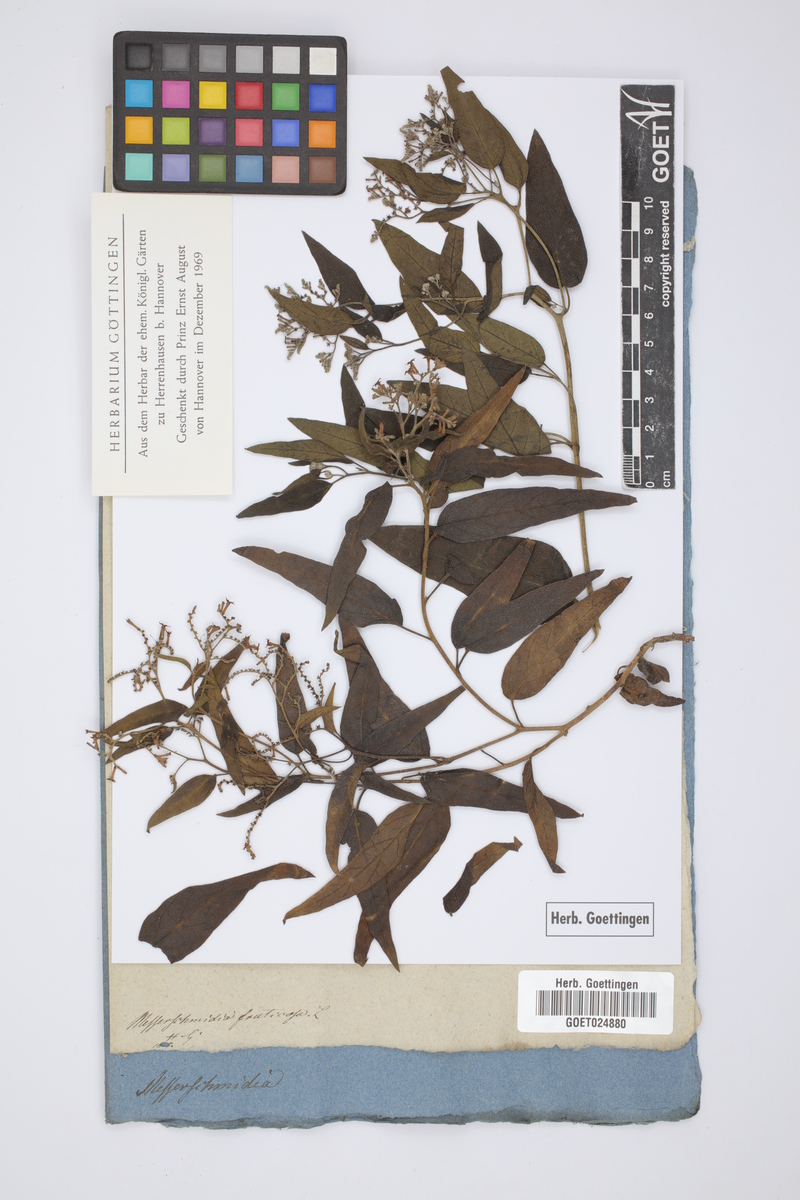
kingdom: Plantae
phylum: Tracheophyta
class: Magnoliopsida
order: Boraginales
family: Heliotropiaceae
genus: Heliotropium
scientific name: Heliotropium messerschmidioides
